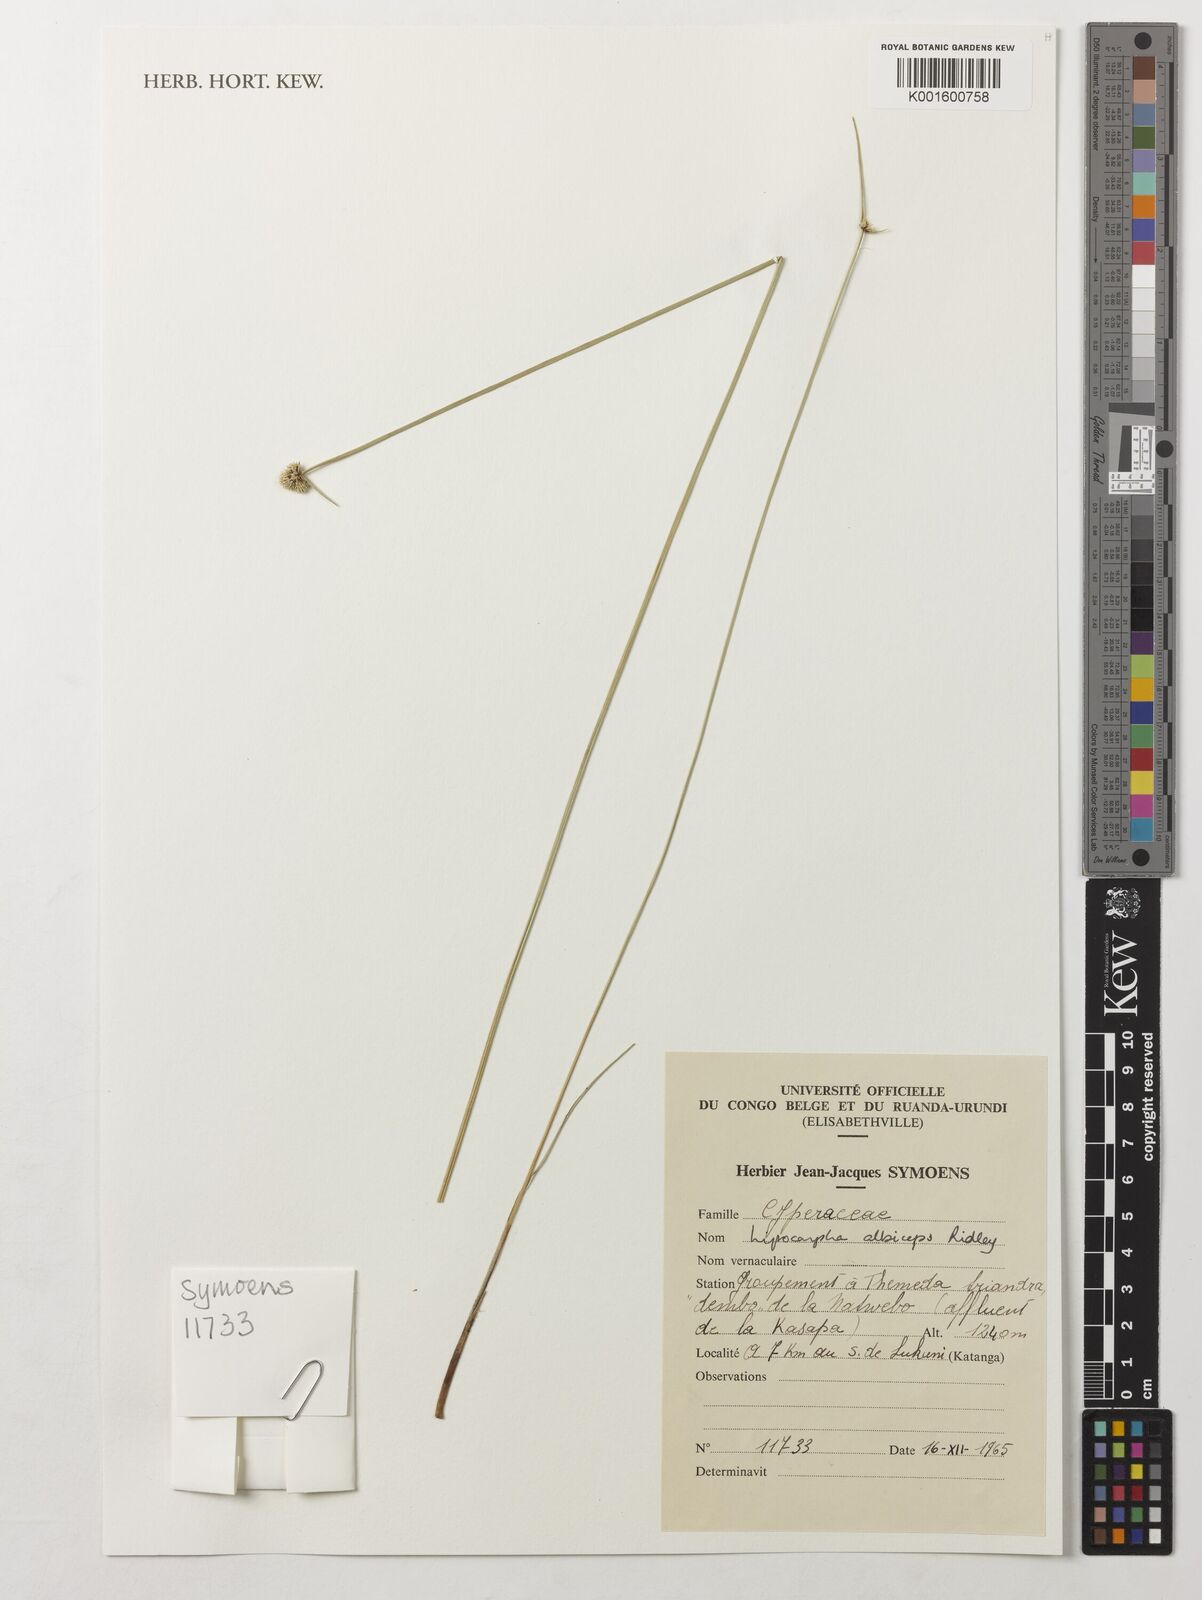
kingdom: Plantae
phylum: Tracheophyta
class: Liliopsida
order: Poales
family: Cyperaceae
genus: Cyperus
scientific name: Cyperus purpureoluteus
